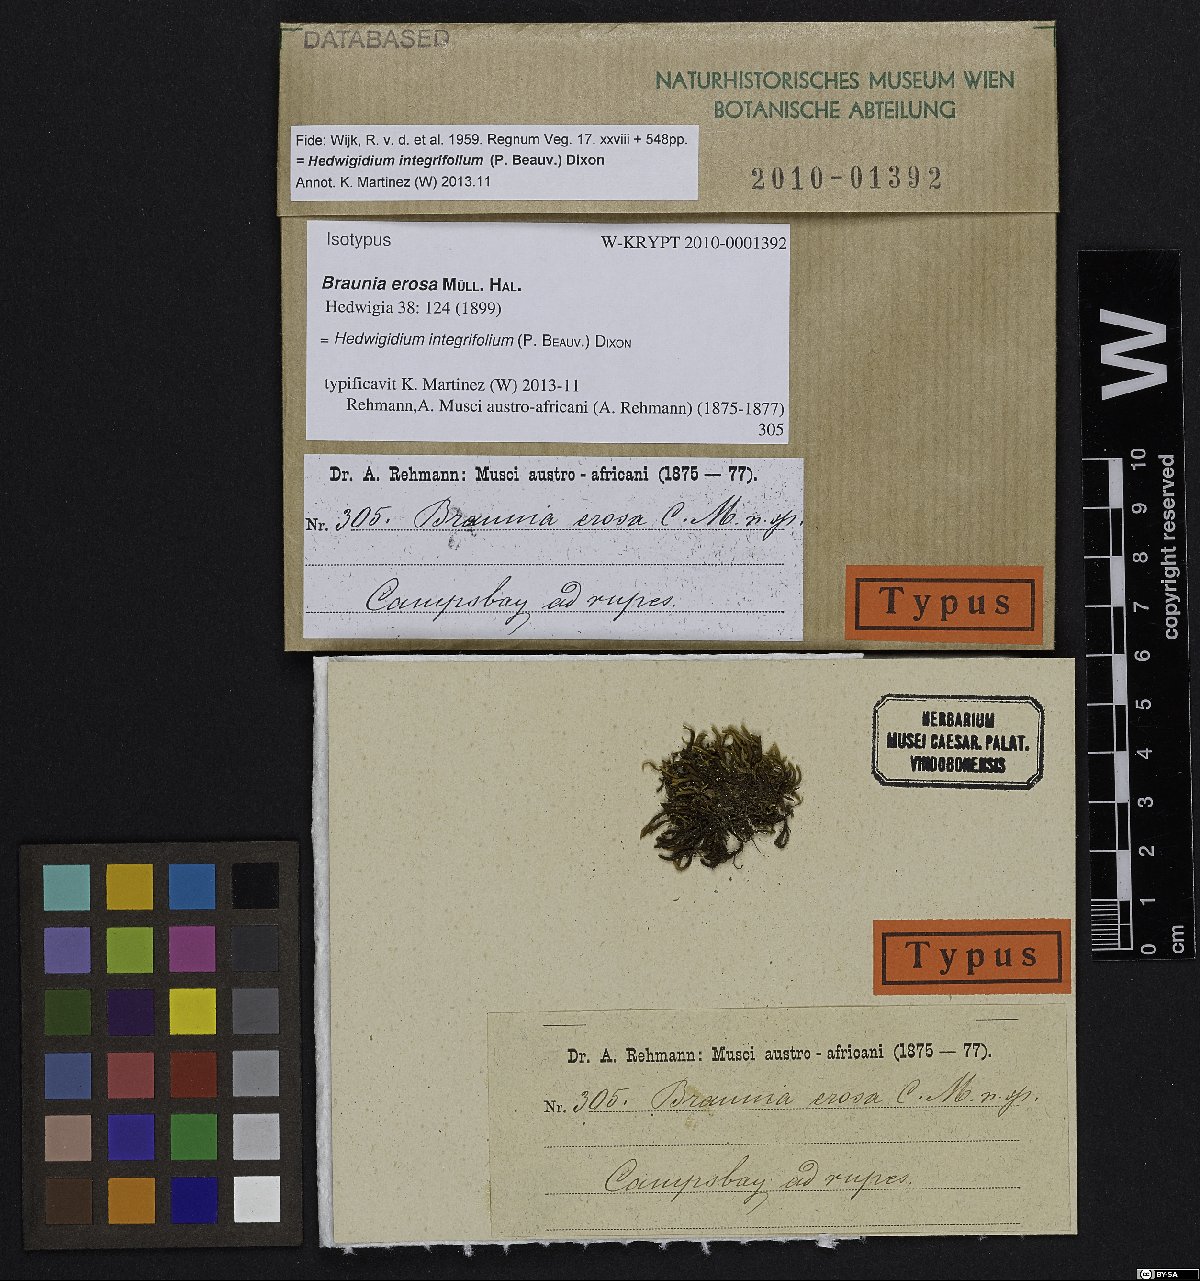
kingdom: Plantae
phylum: Bryophyta
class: Bryopsida
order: Hedwigiales
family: Hedwigiaceae
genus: Hedwigidium
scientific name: Hedwigidium imberbe
